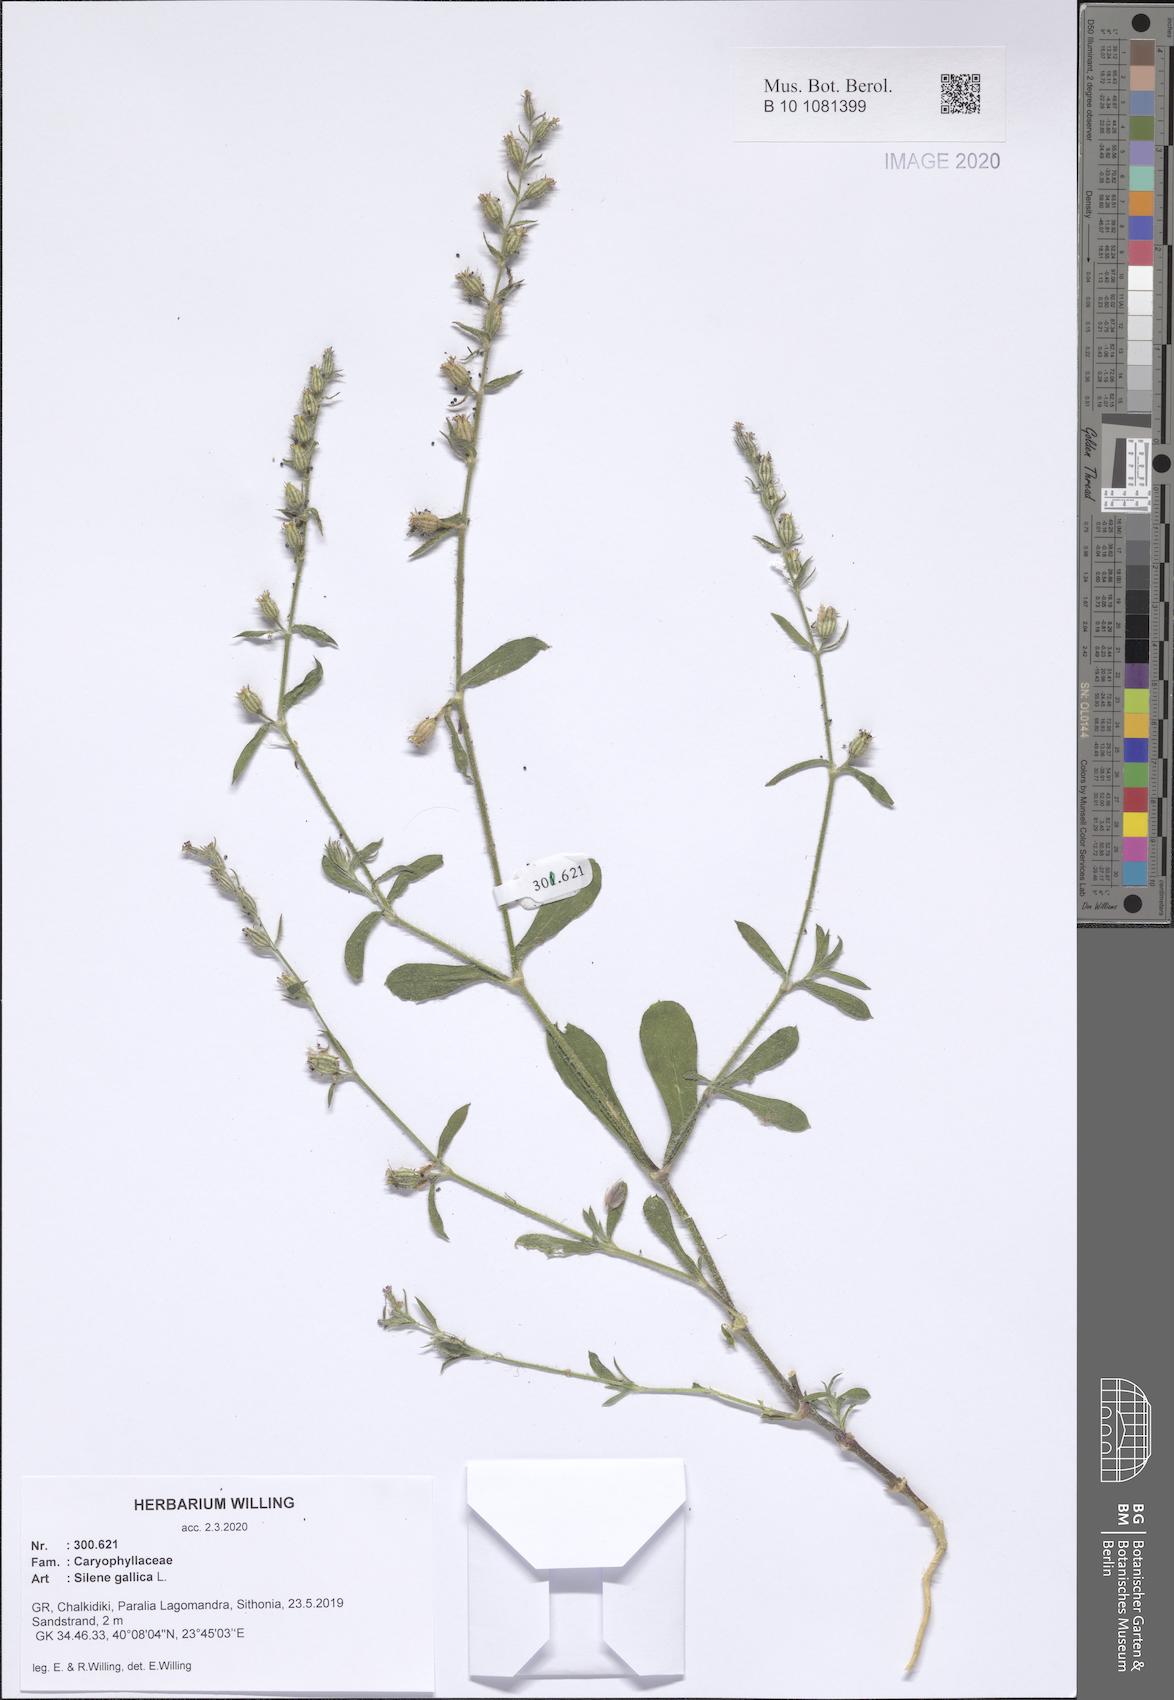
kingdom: Plantae
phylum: Tracheophyta
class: Magnoliopsida
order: Caryophyllales
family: Caryophyllaceae
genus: Silene
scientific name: Silene gallica
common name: Small-flowered catchfly
